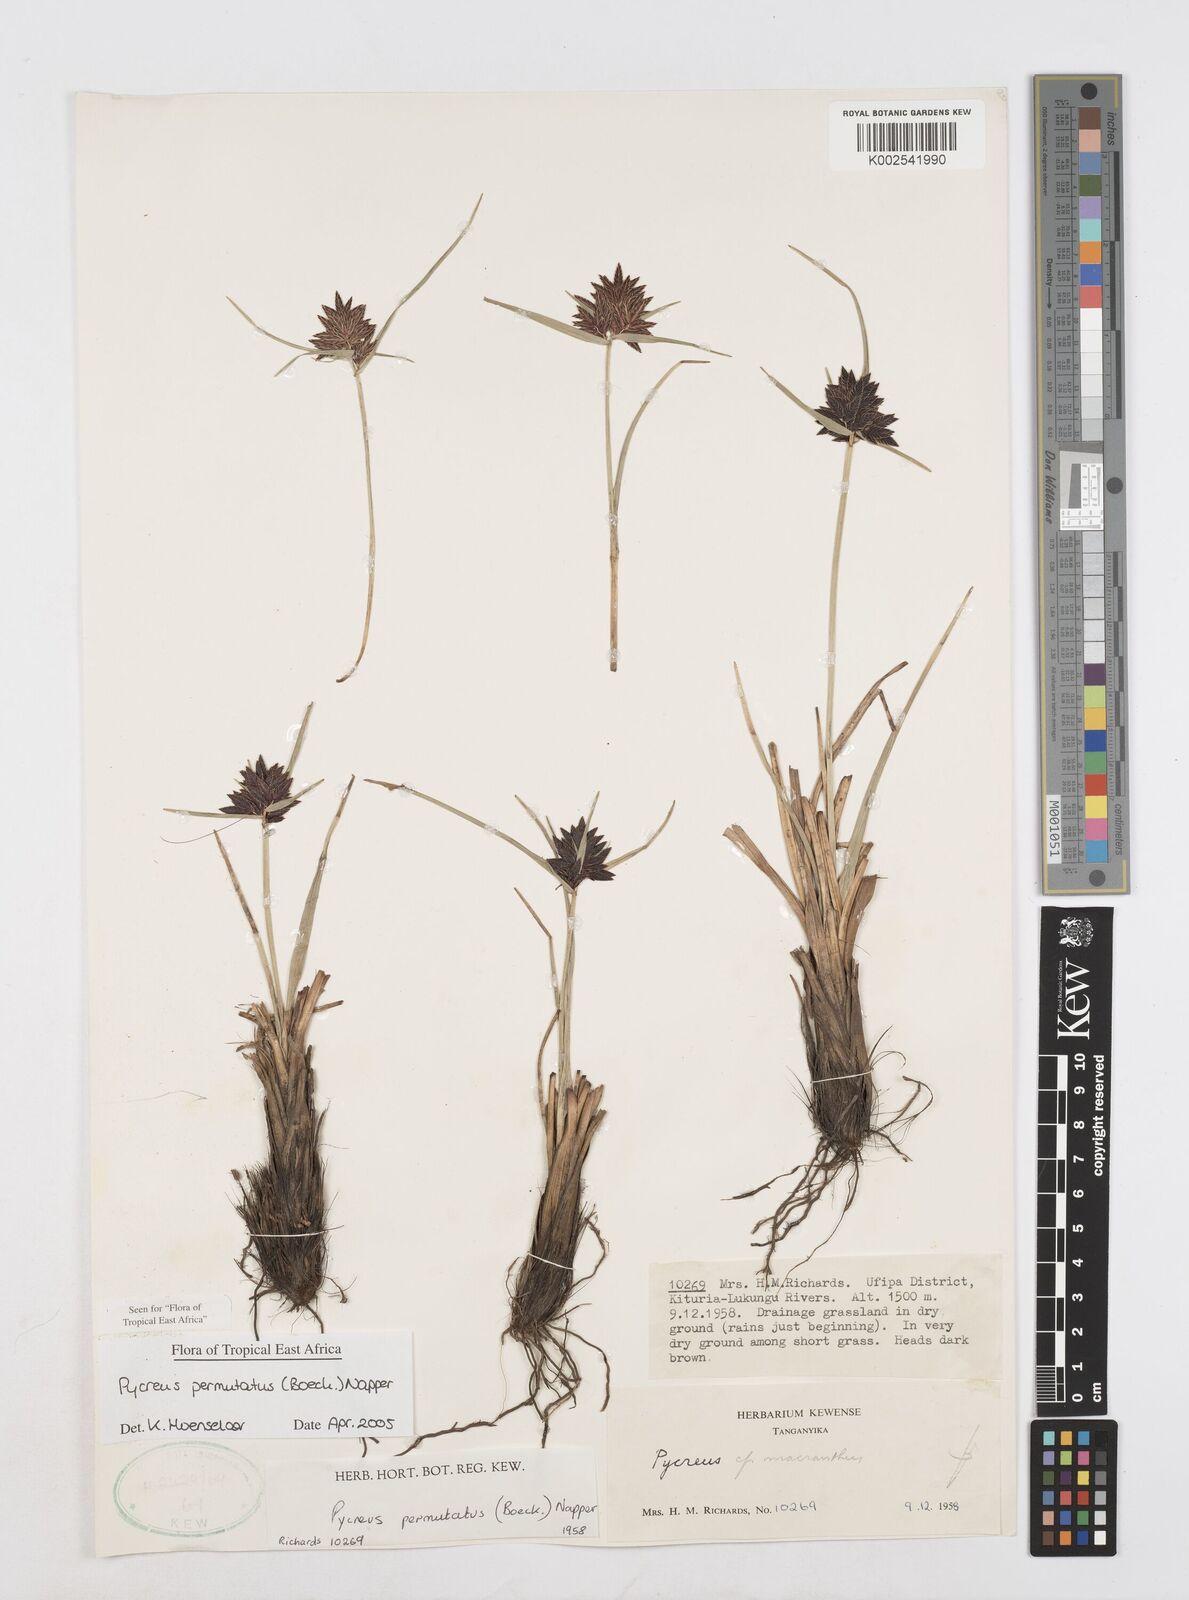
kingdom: Plantae
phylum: Tracheophyta
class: Liliopsida
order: Poales
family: Cyperaceae
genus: Cyperus
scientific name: Cyperus nigricans
